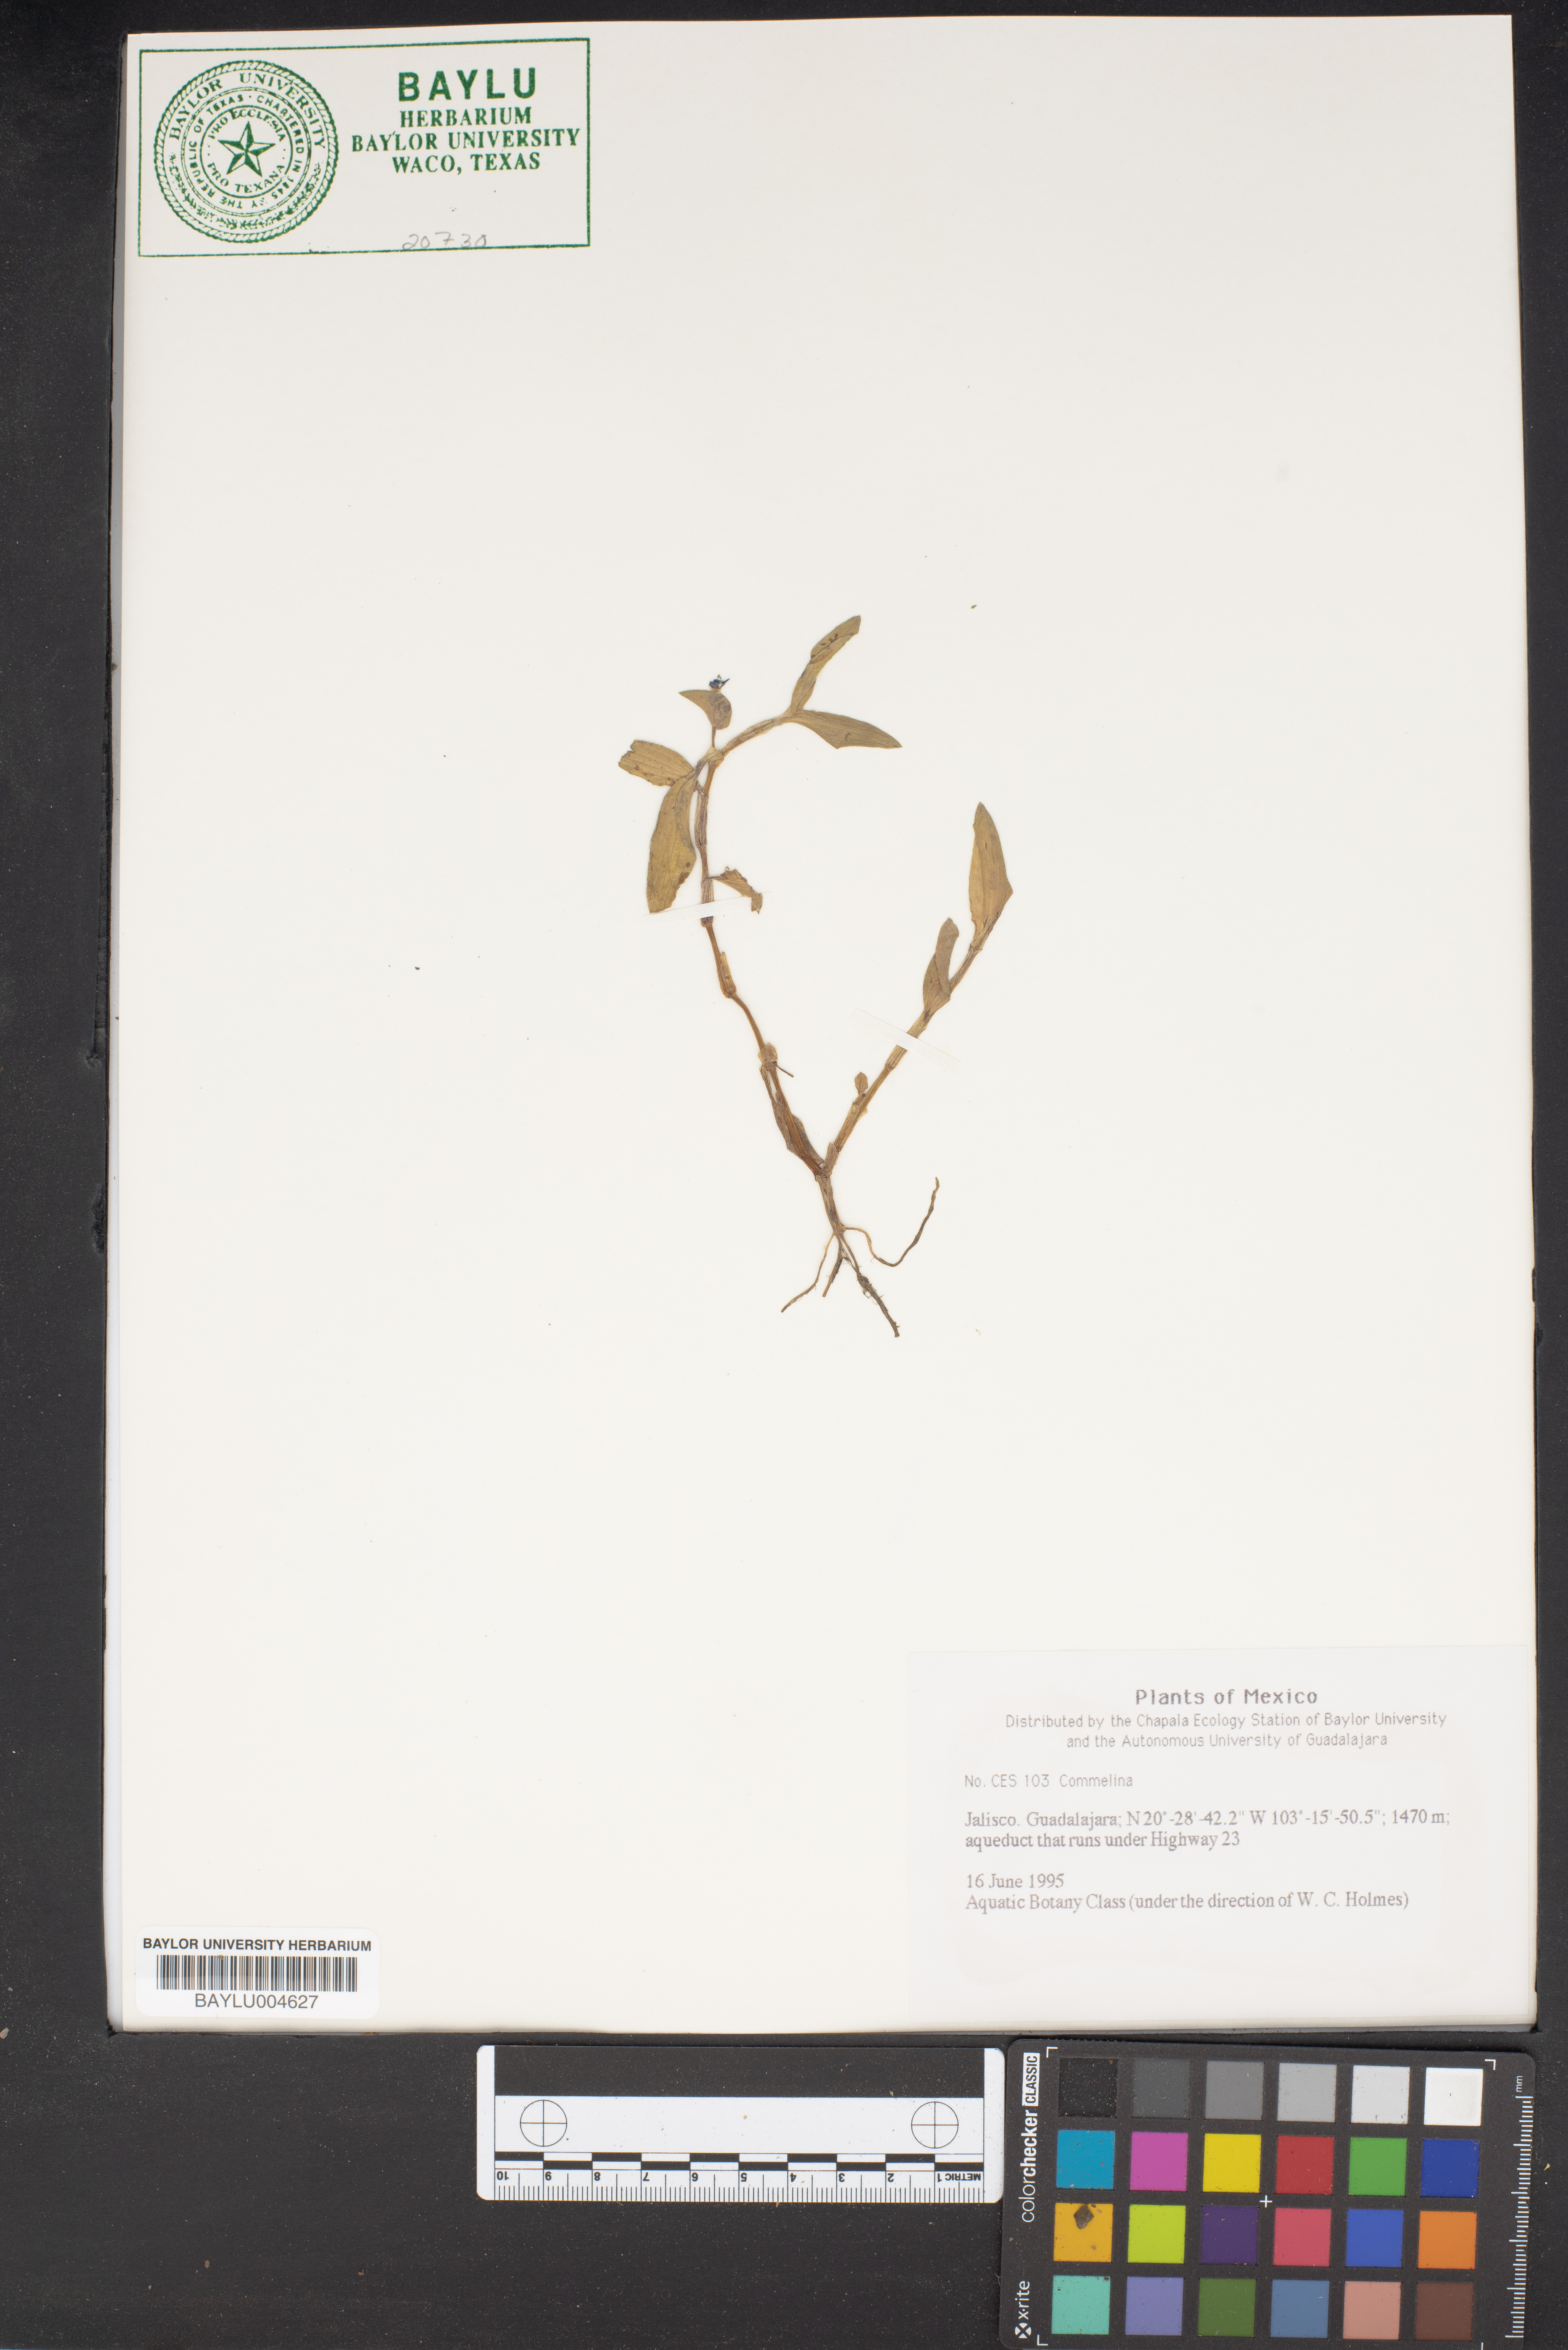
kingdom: Plantae
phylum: Tracheophyta
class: Liliopsida
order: Commelinales
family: Commelinaceae
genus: Commelina
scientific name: Commelina
